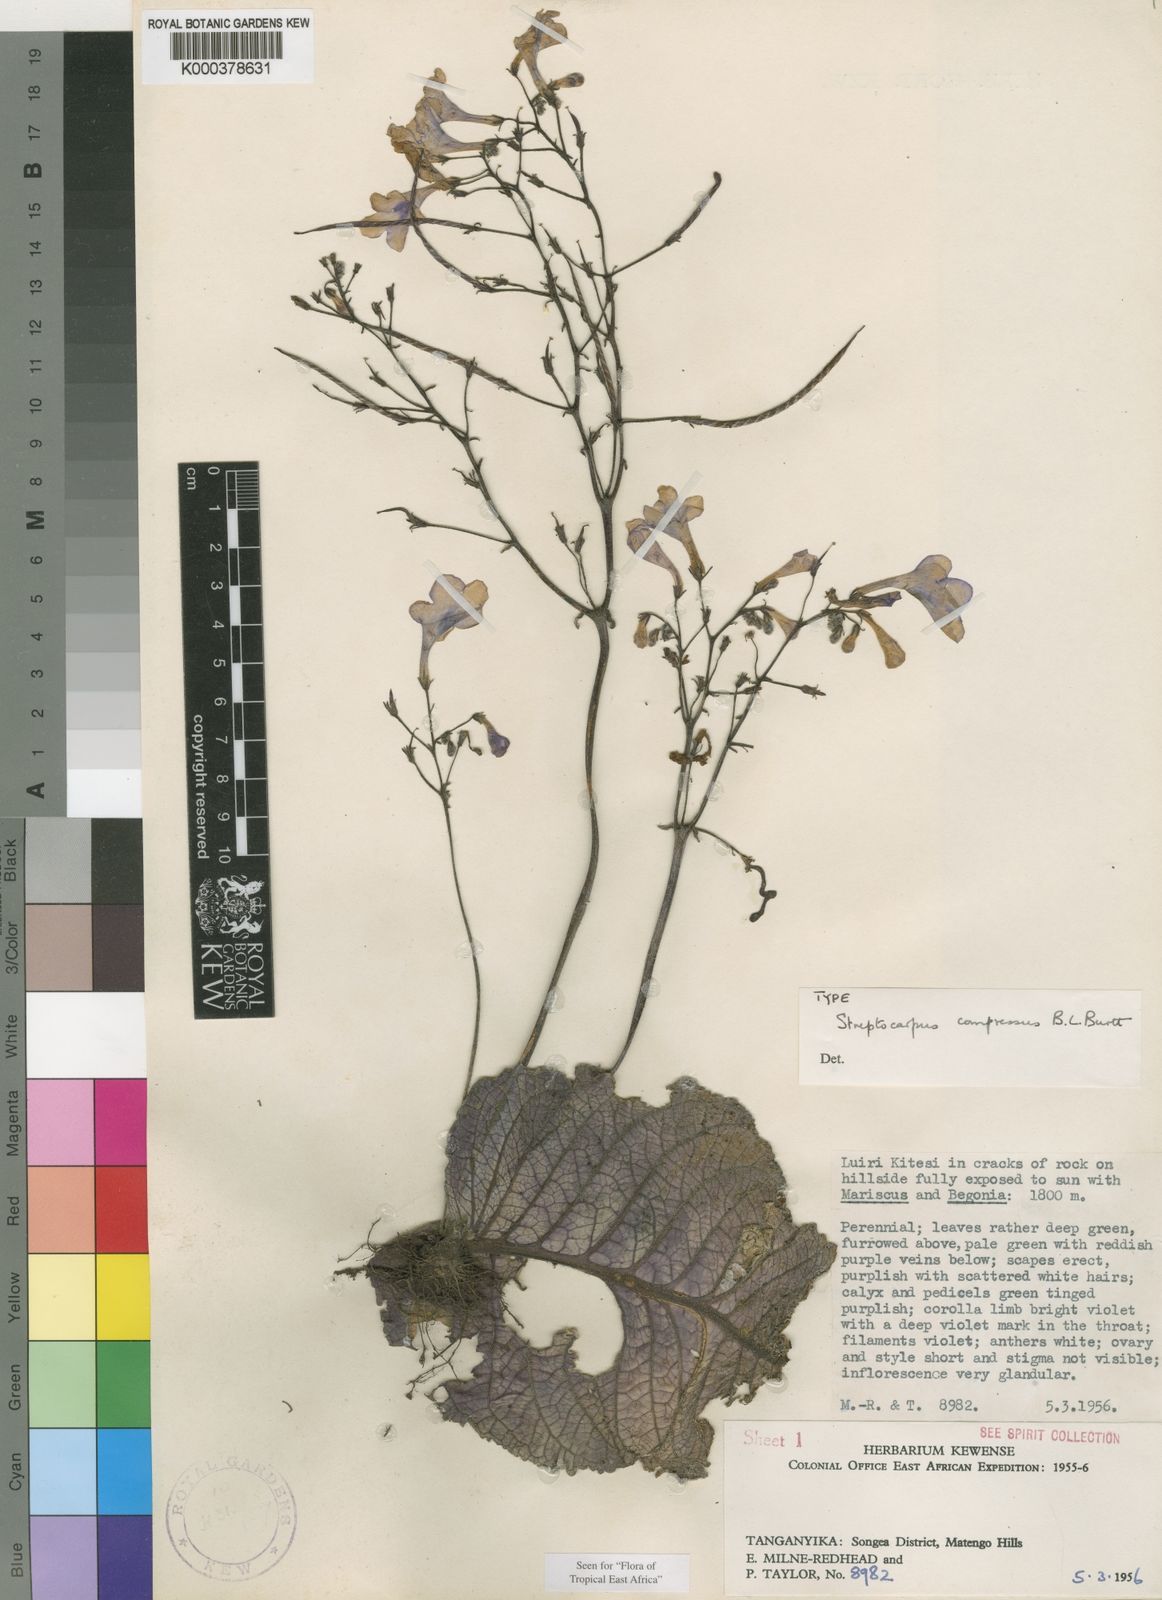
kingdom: Plantae
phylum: Tracheophyta
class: Magnoliopsida
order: Lamiales
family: Gesneriaceae
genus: Streptocarpus
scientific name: Streptocarpus compressus
